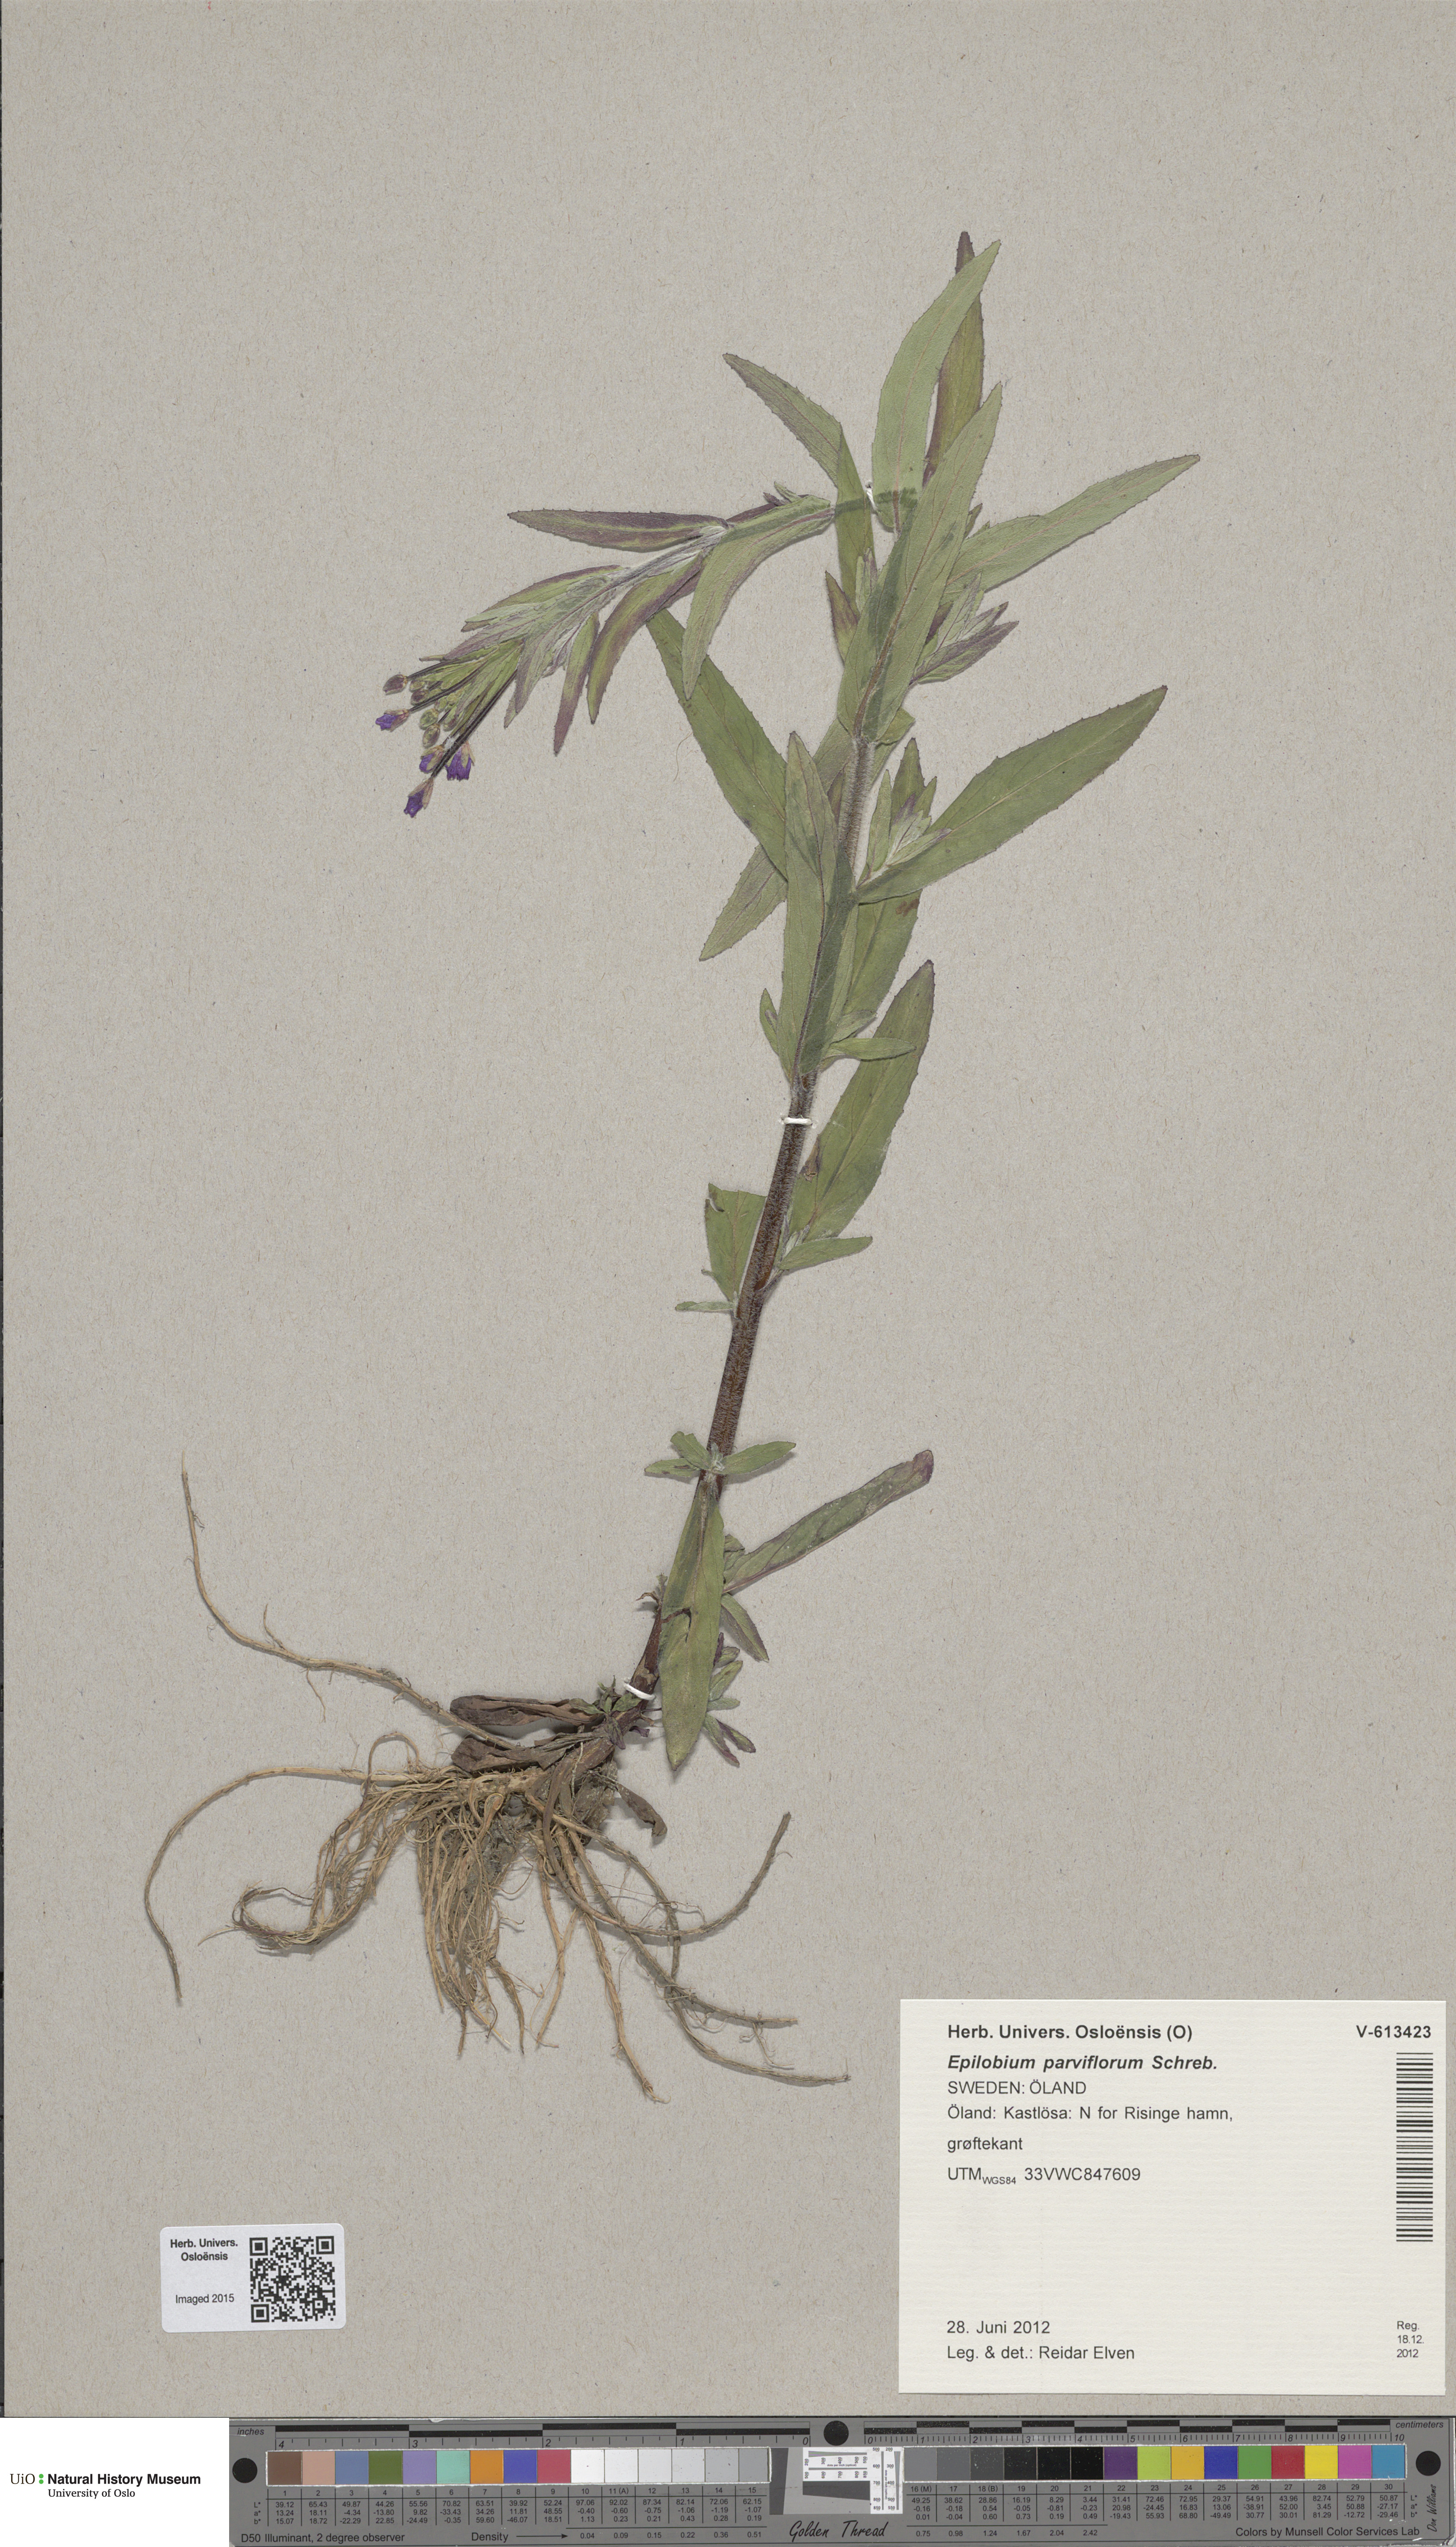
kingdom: Plantae
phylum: Tracheophyta
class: Magnoliopsida
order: Myrtales
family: Onagraceae
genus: Epilobium
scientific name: Epilobium parviflorum
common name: Hoary willowherb
